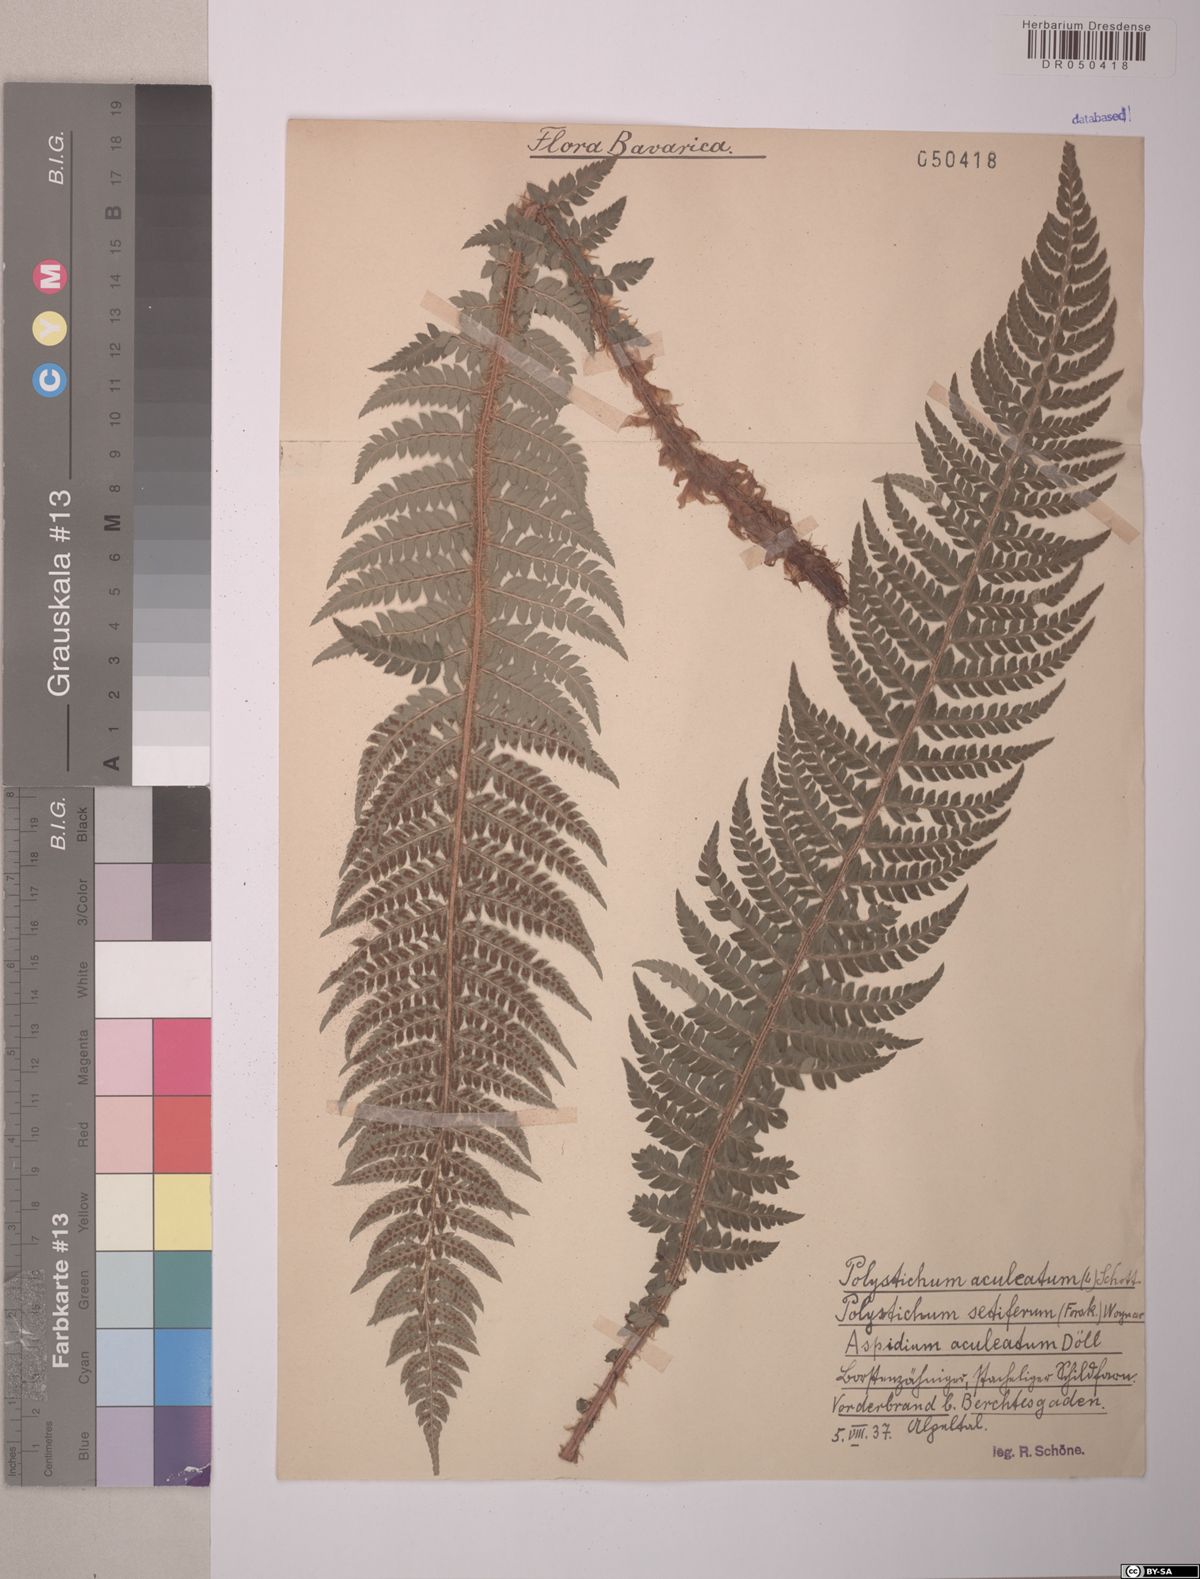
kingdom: Plantae
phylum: Tracheophyta
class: Polypodiopsida
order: Polypodiales
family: Dryopteridaceae
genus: Polystichum
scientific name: Polystichum aculeatum
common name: Hard shield-fern
